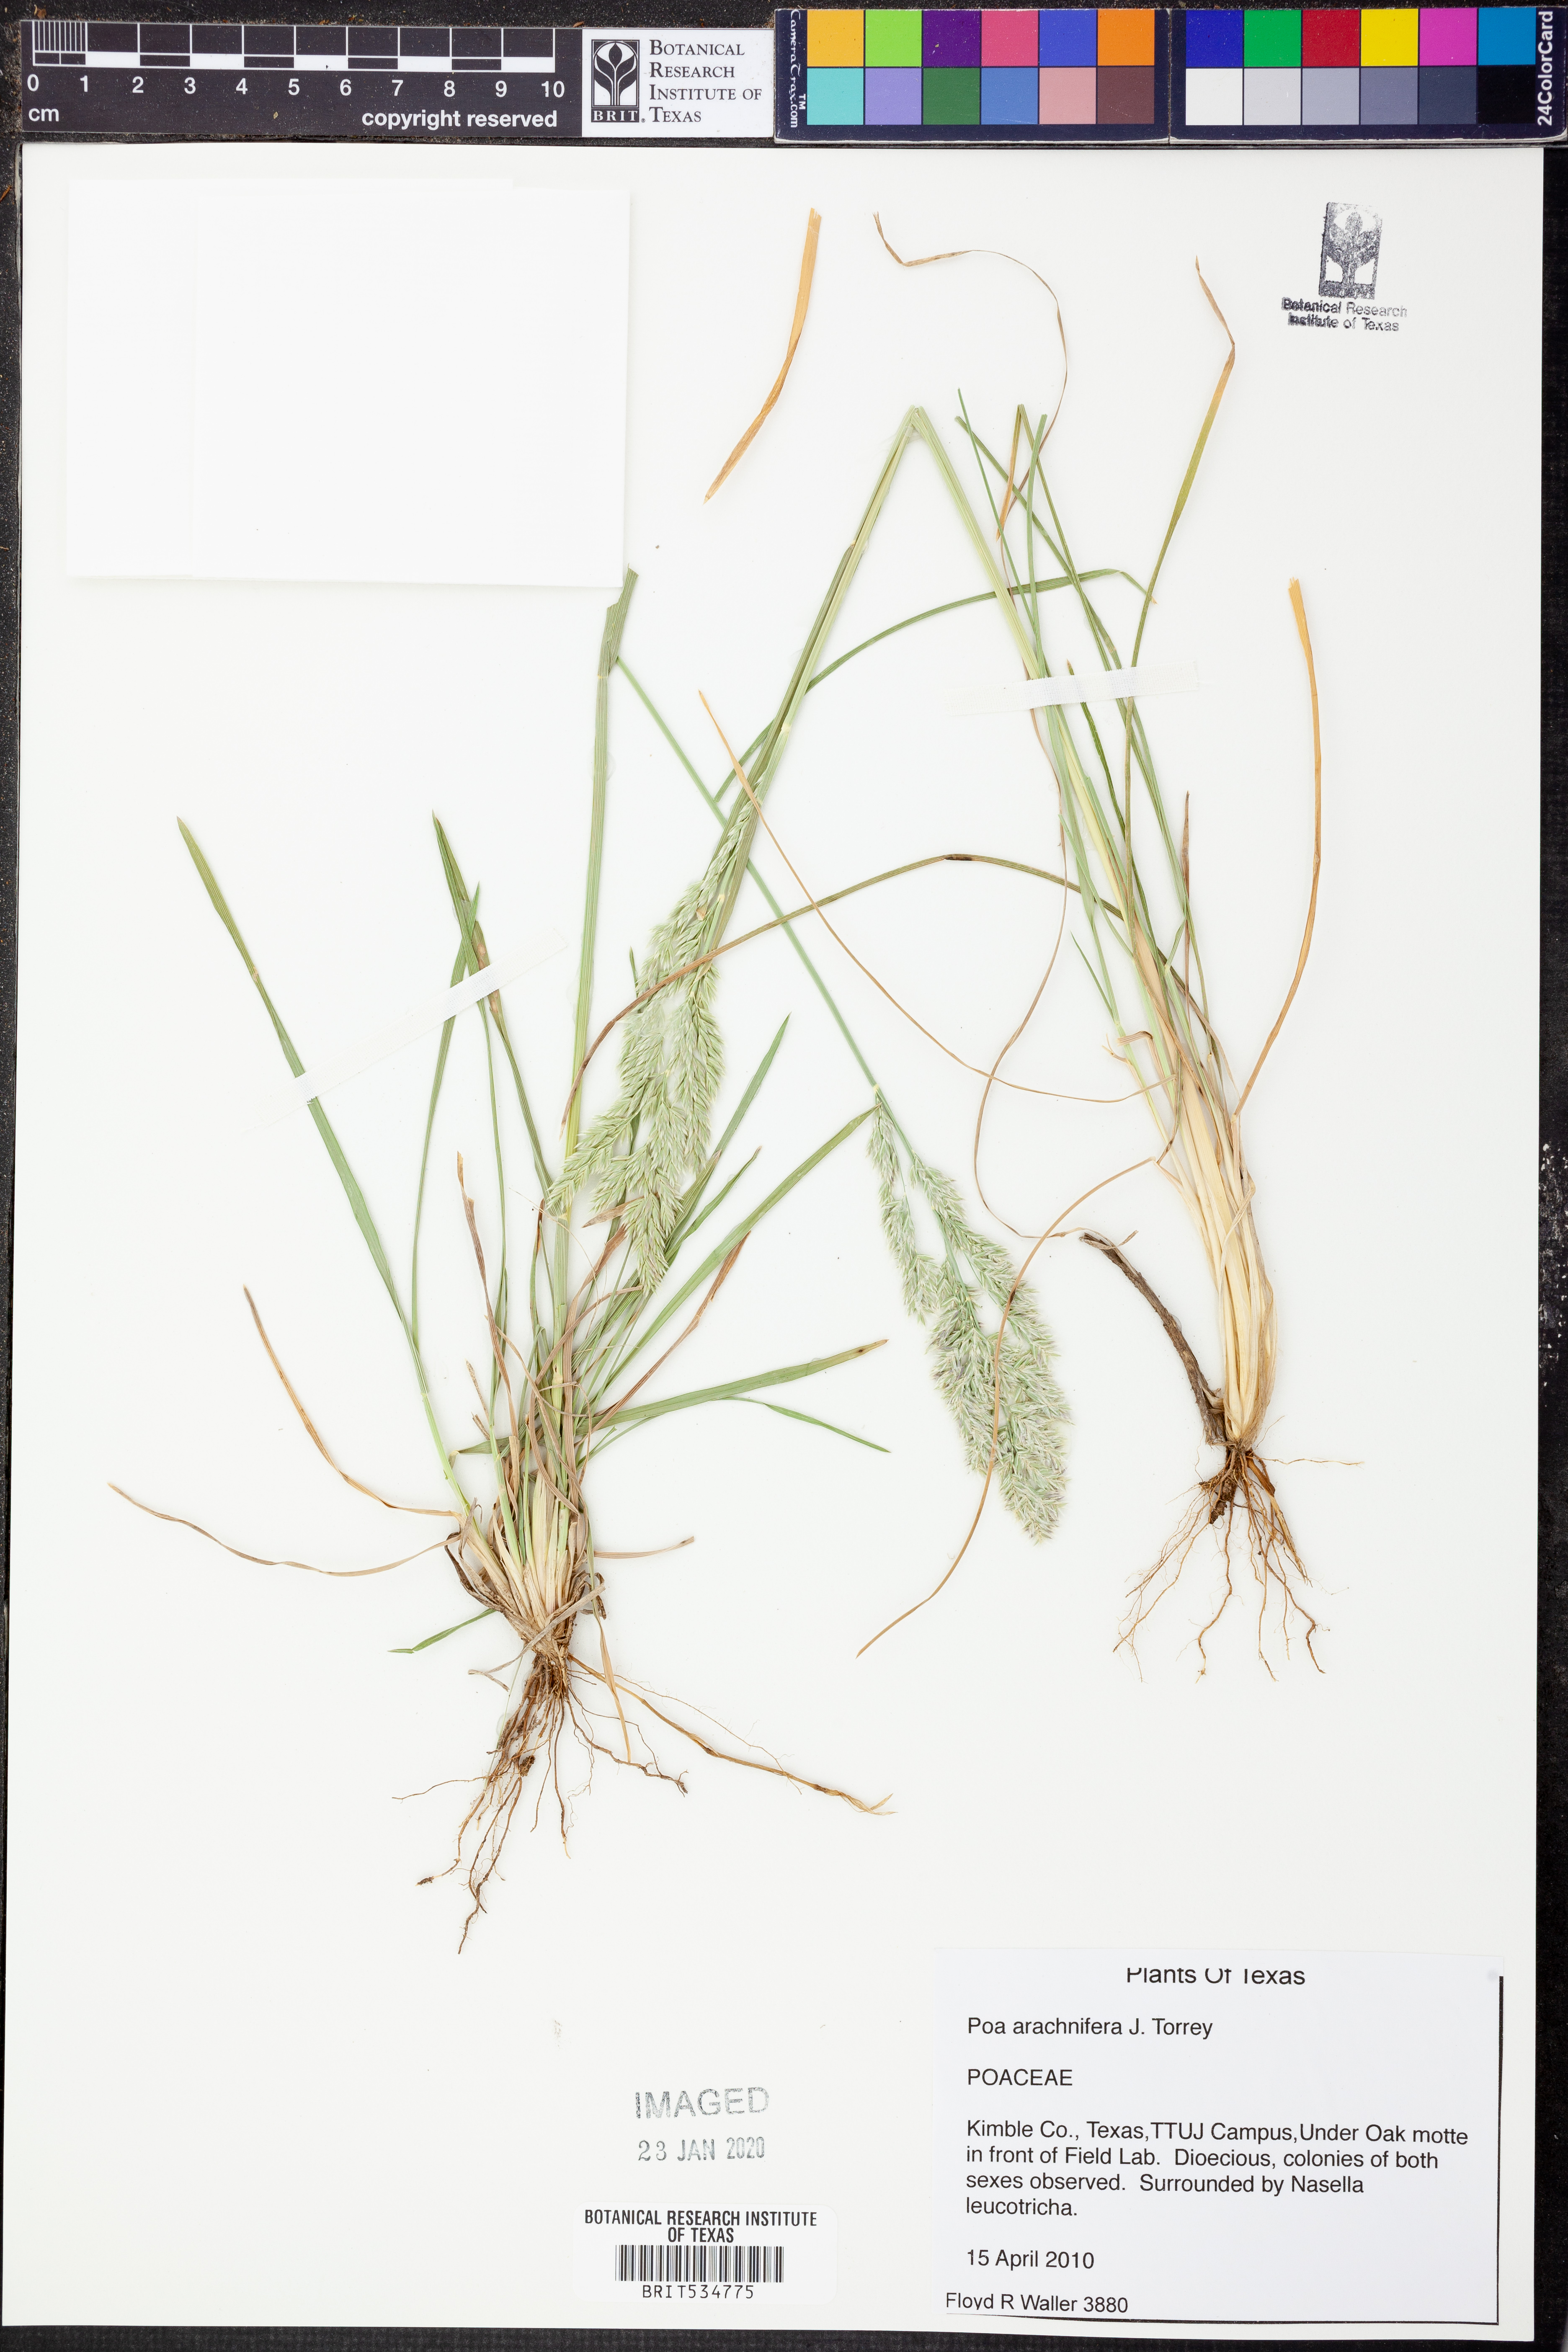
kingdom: Plantae
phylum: Tracheophyta
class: Liliopsida
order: Poales
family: Poaceae
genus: Poa
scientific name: Poa arachnifera
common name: Texas bluegrass
